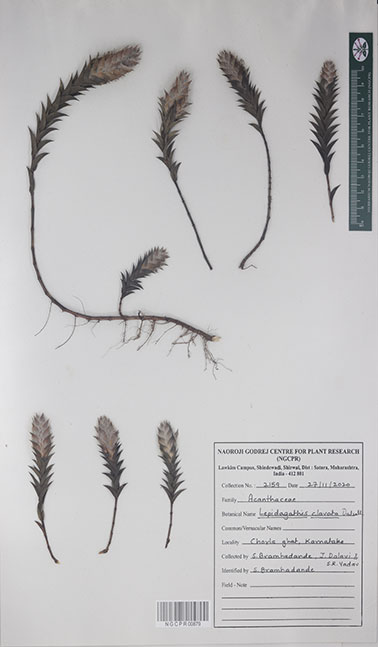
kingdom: Plantae
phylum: Tracheophyta
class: Magnoliopsida
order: Lamiales
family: Acanthaceae
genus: Lepidagathis
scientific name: Lepidagathis clavata
